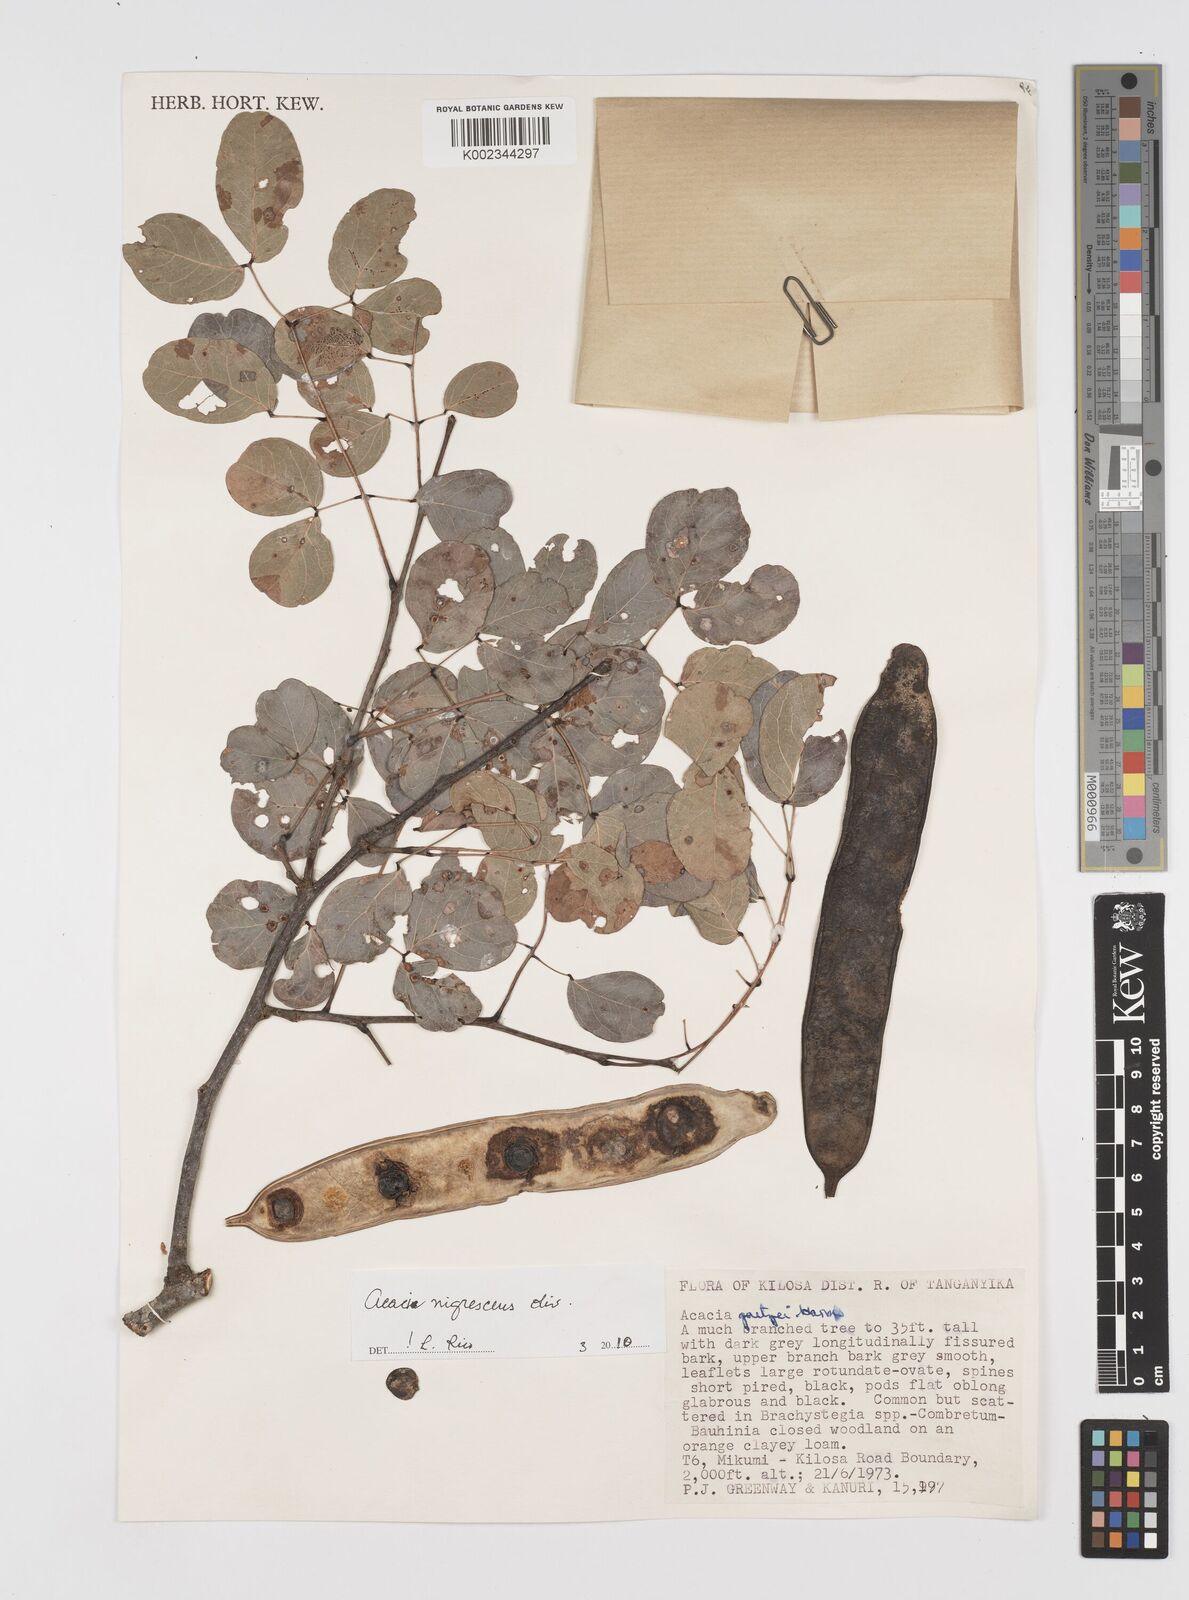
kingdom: Plantae
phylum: Tracheophyta
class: Magnoliopsida
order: Fabales
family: Fabaceae
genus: Senegalia
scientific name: Senegalia nigrescens
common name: Knobthorn
